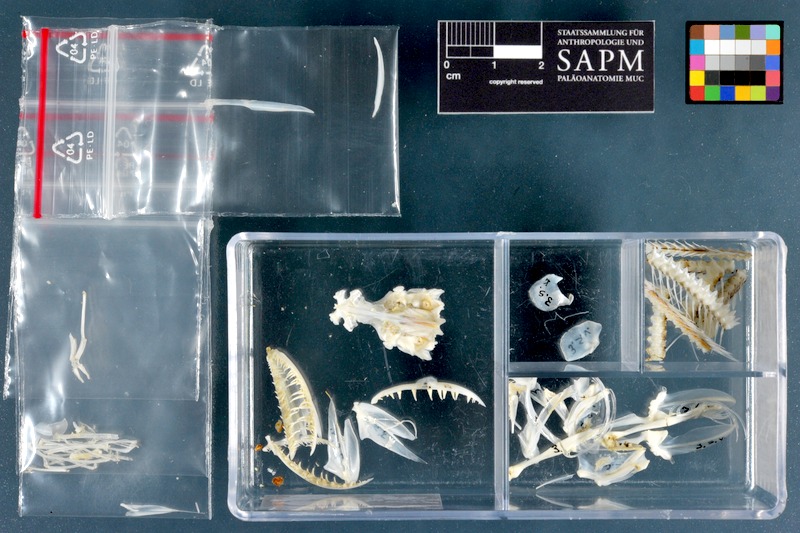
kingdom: Animalia
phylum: Chordata
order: Aulopiformes
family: Synodontidae
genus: Synodus
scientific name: Synodus variegatus
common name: Variegated lizardfish
